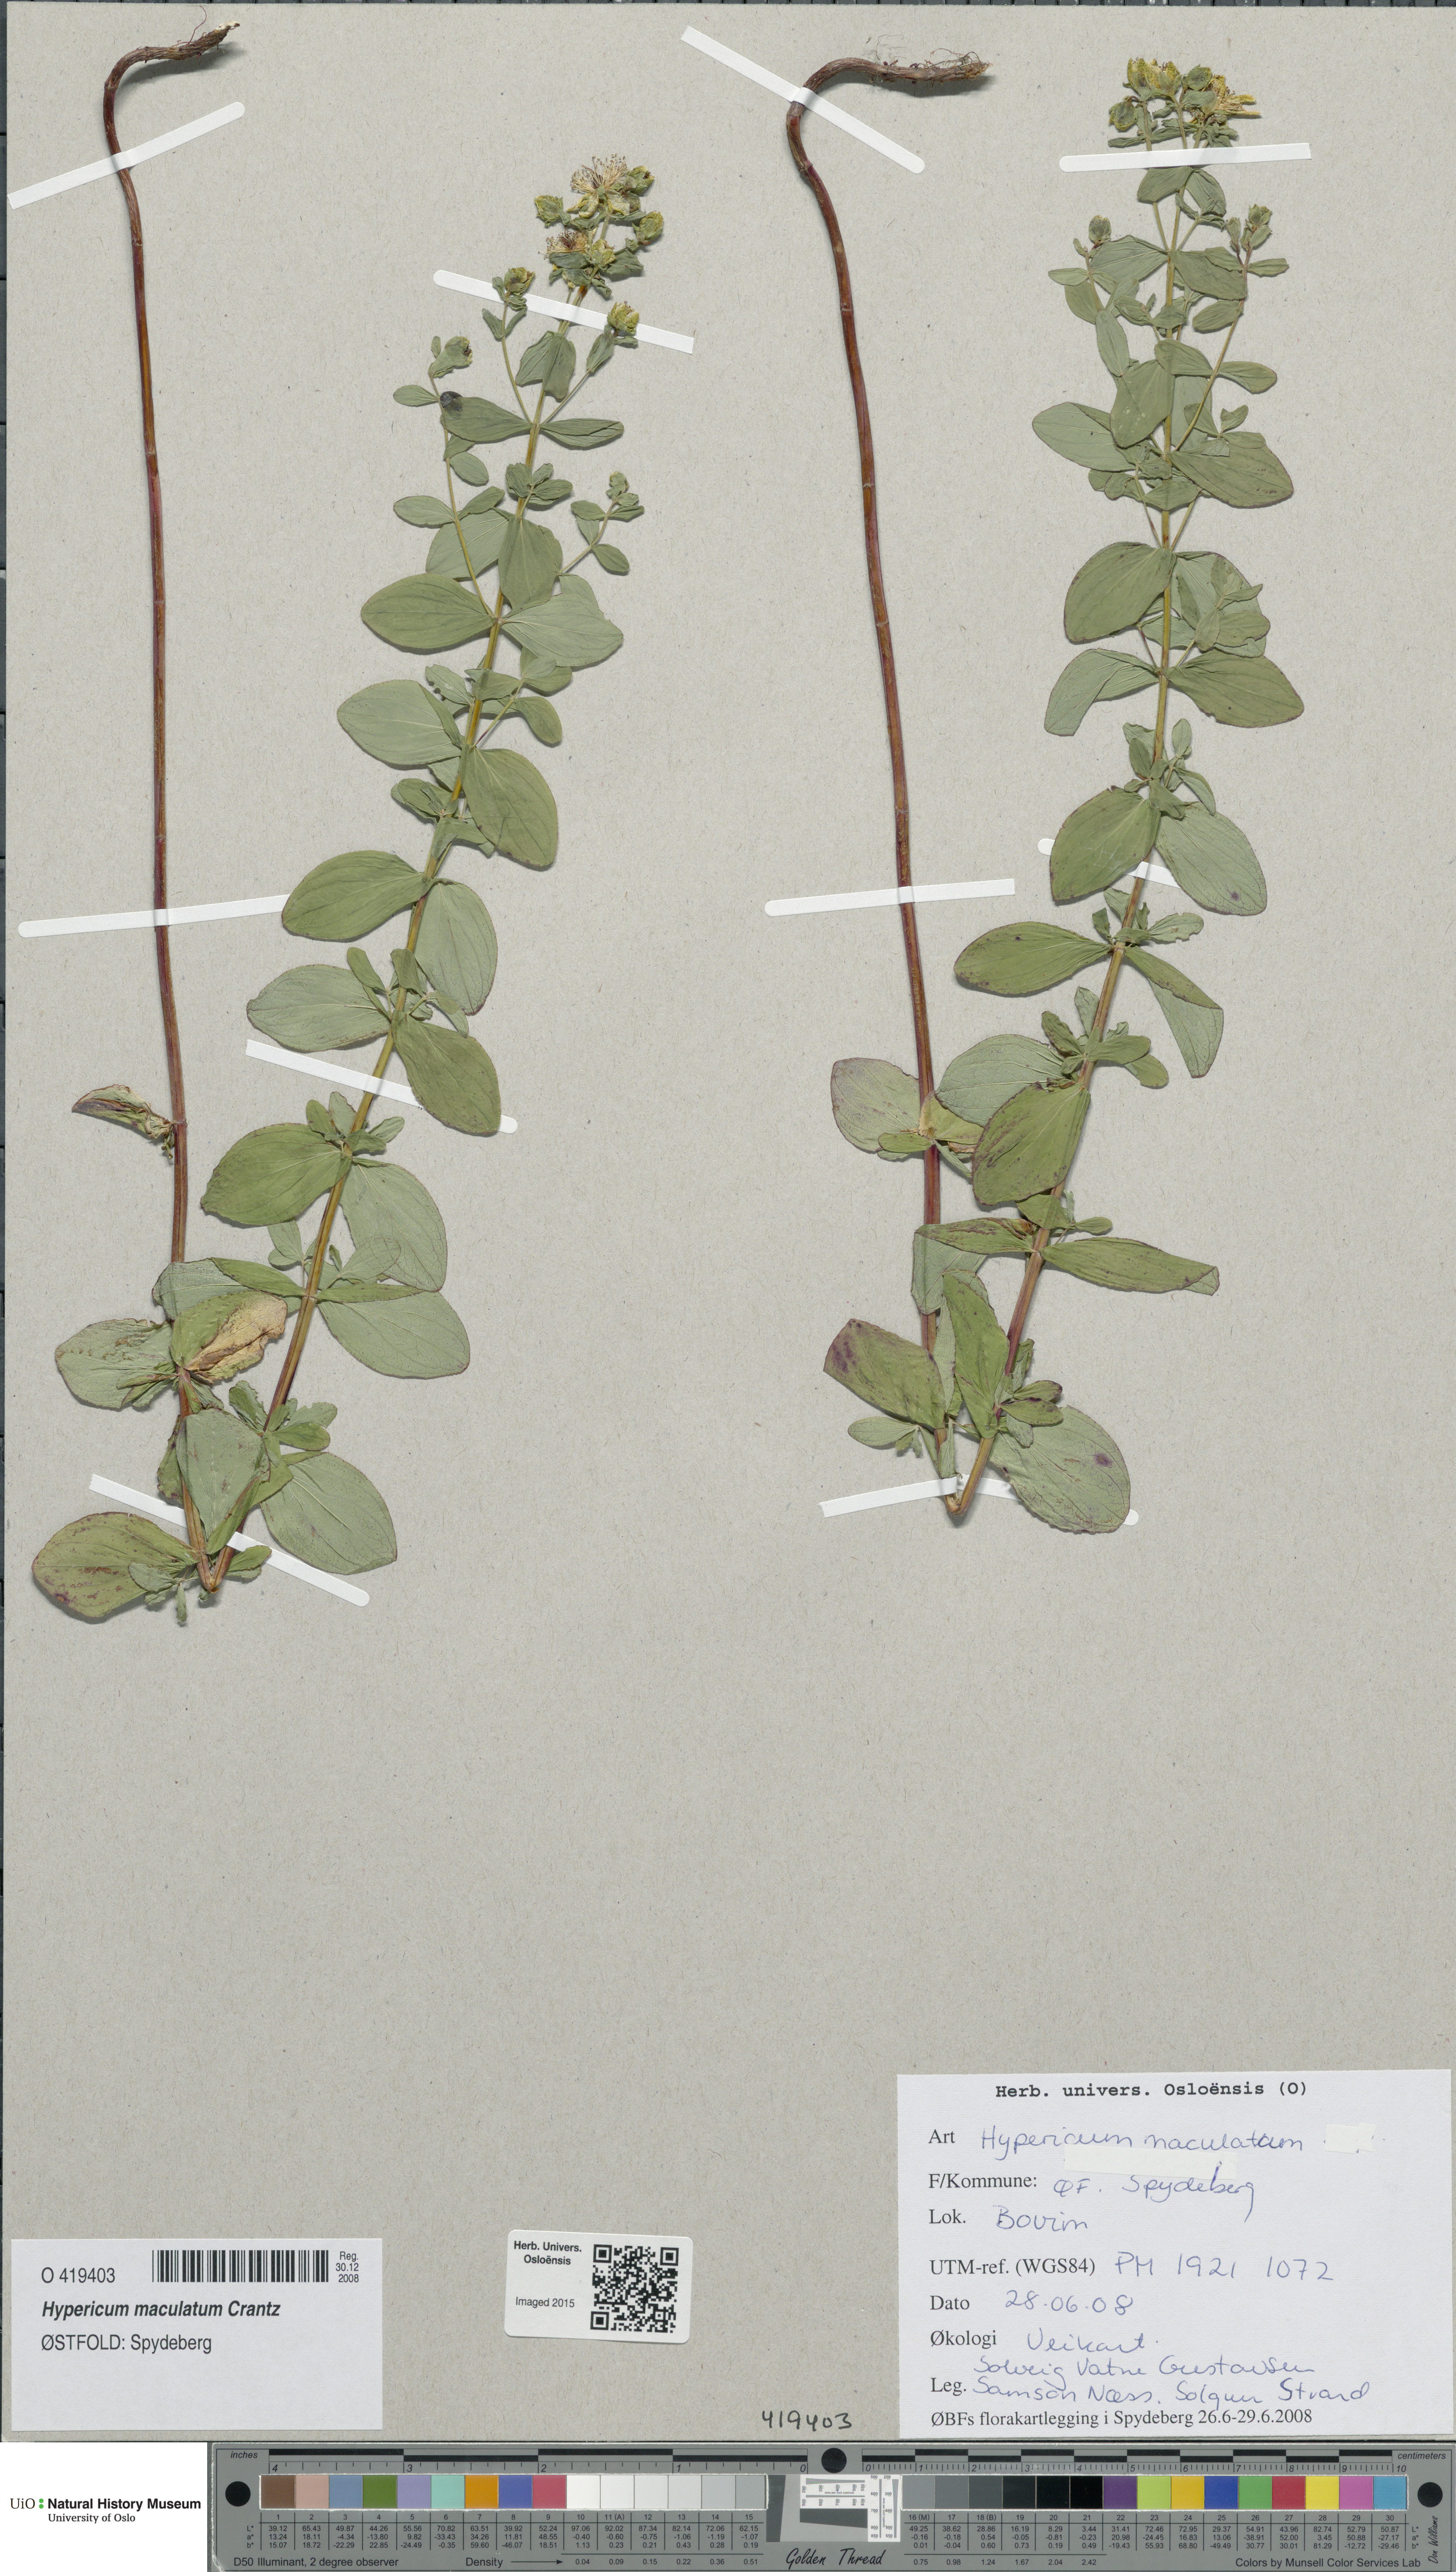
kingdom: Plantae
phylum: Tracheophyta
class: Magnoliopsida
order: Malpighiales
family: Hypericaceae
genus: Hypericum
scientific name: Hypericum maculatum
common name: Imperforate st. john's-wort
